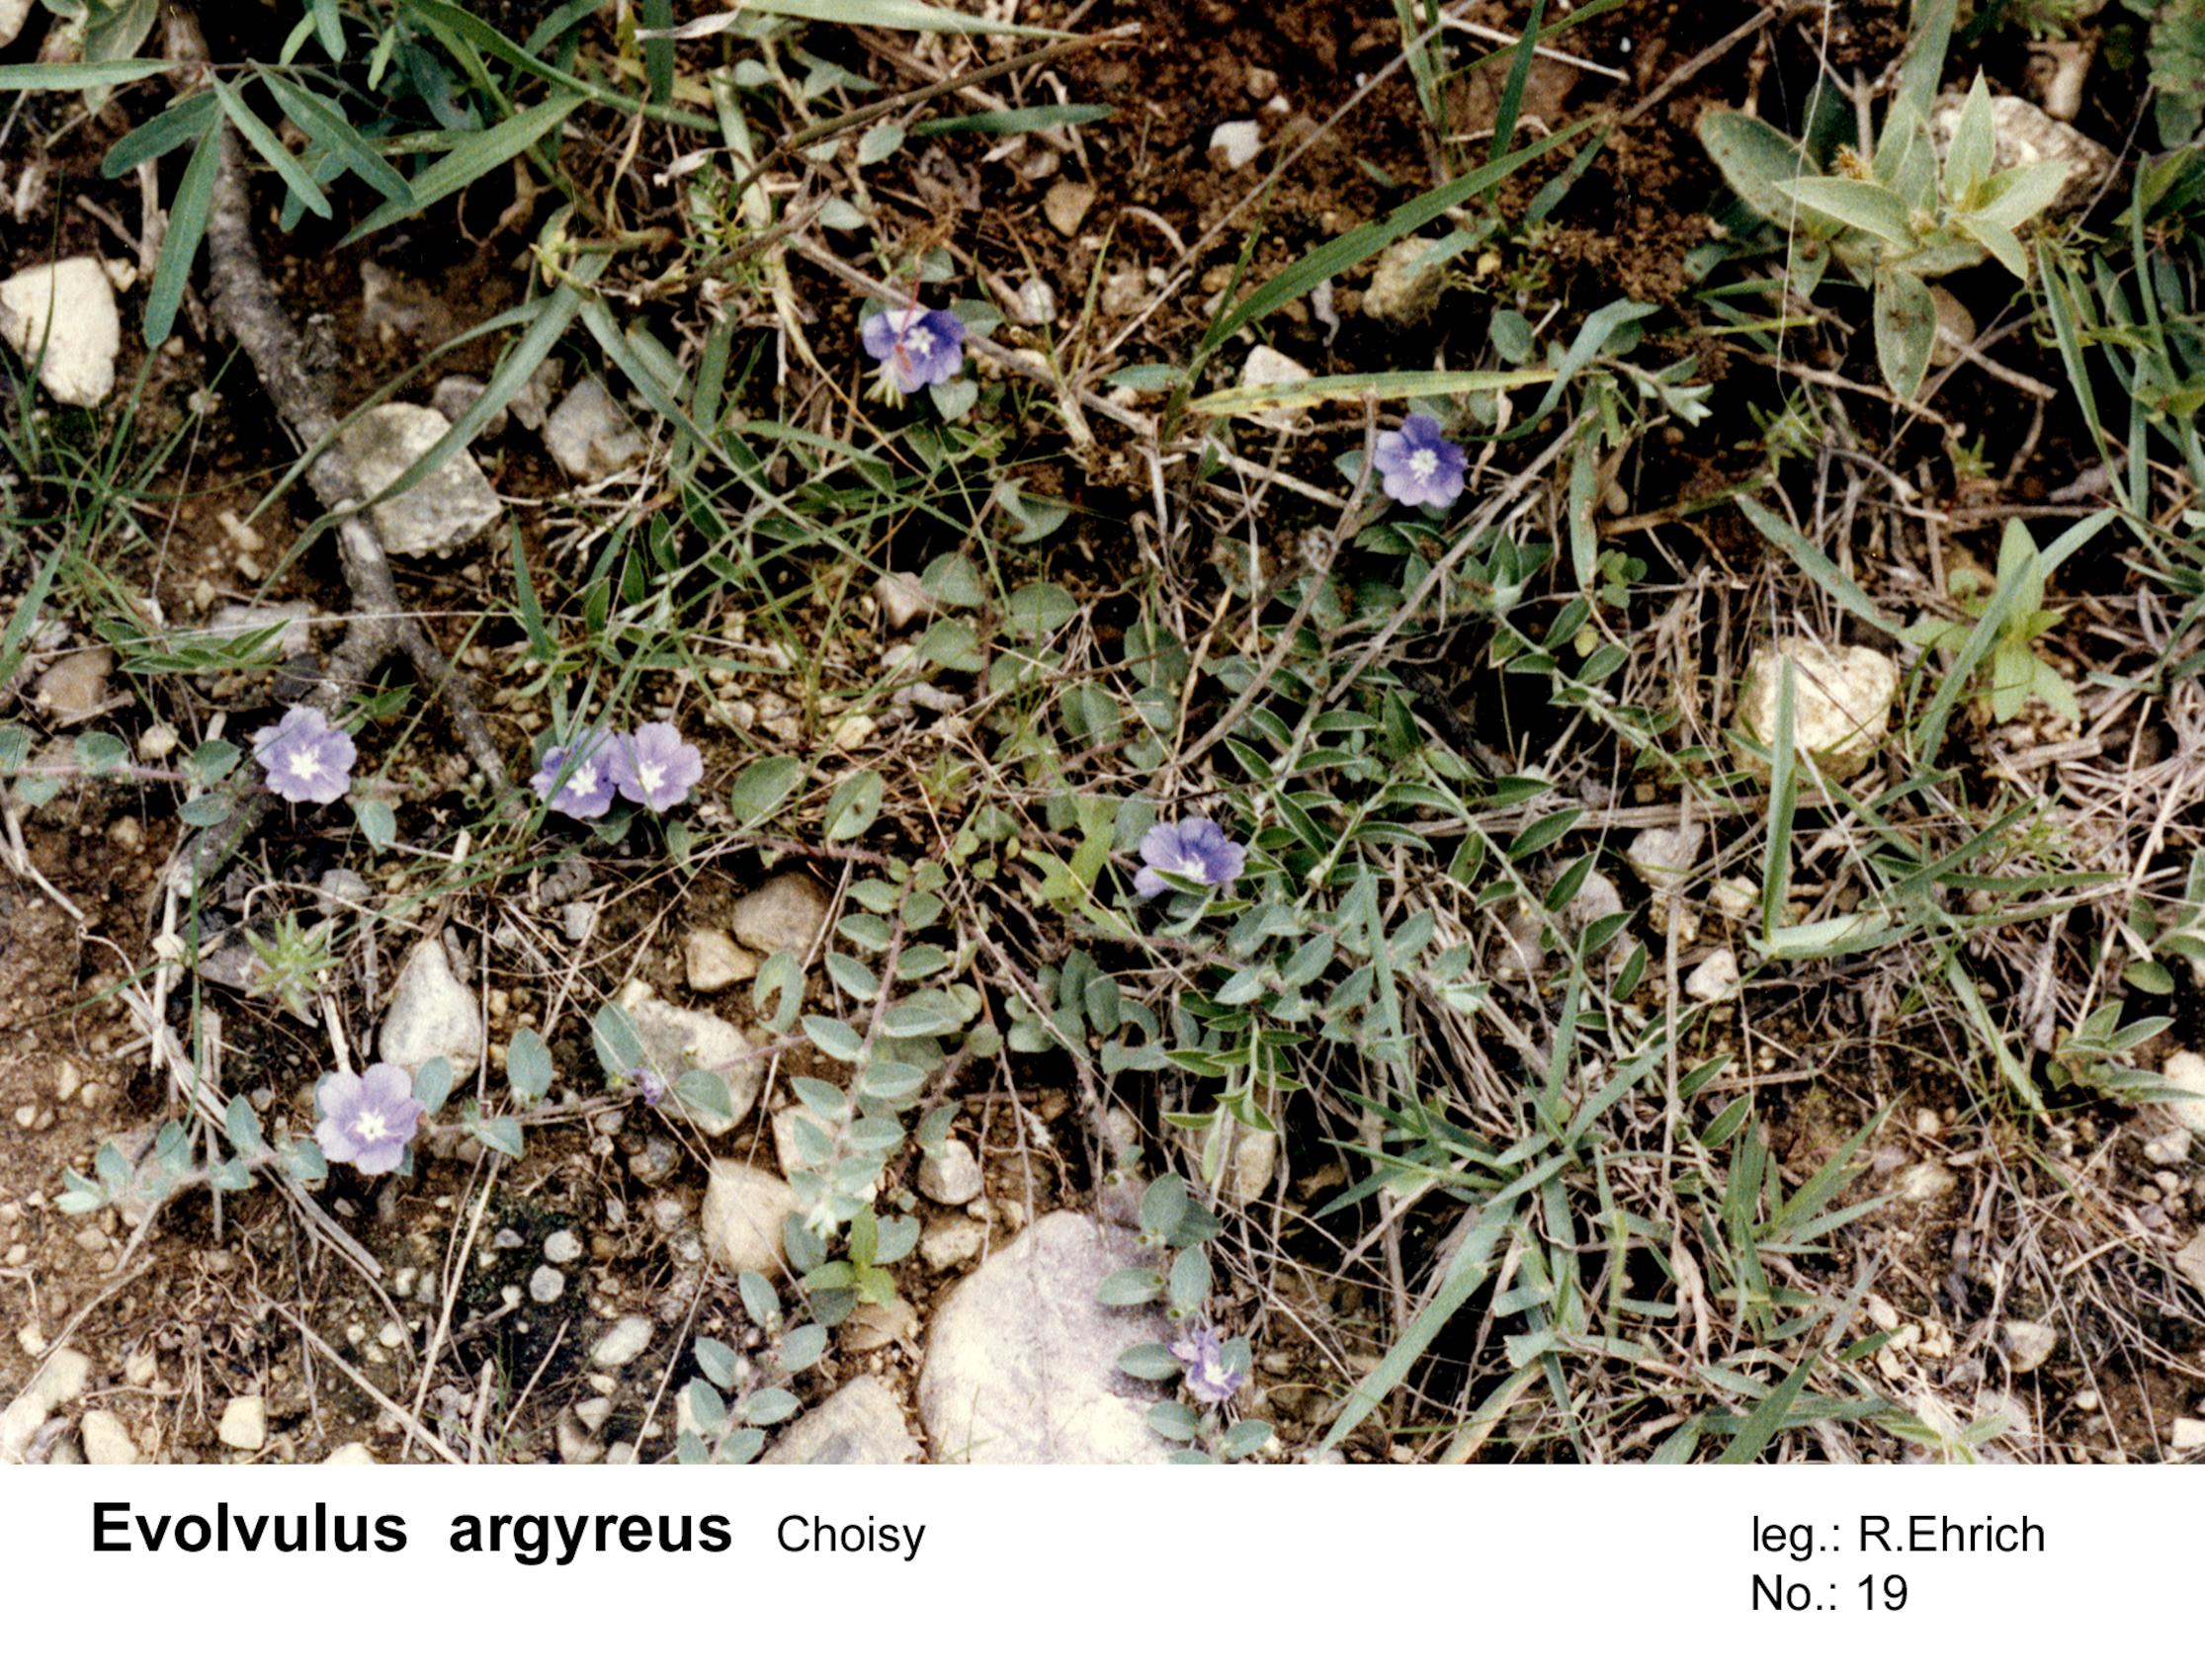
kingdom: Plantae
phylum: Tracheophyta
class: Magnoliopsida
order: Solanales
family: Convolvulaceae
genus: Evolvulus
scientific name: Evolvulus argyreus
